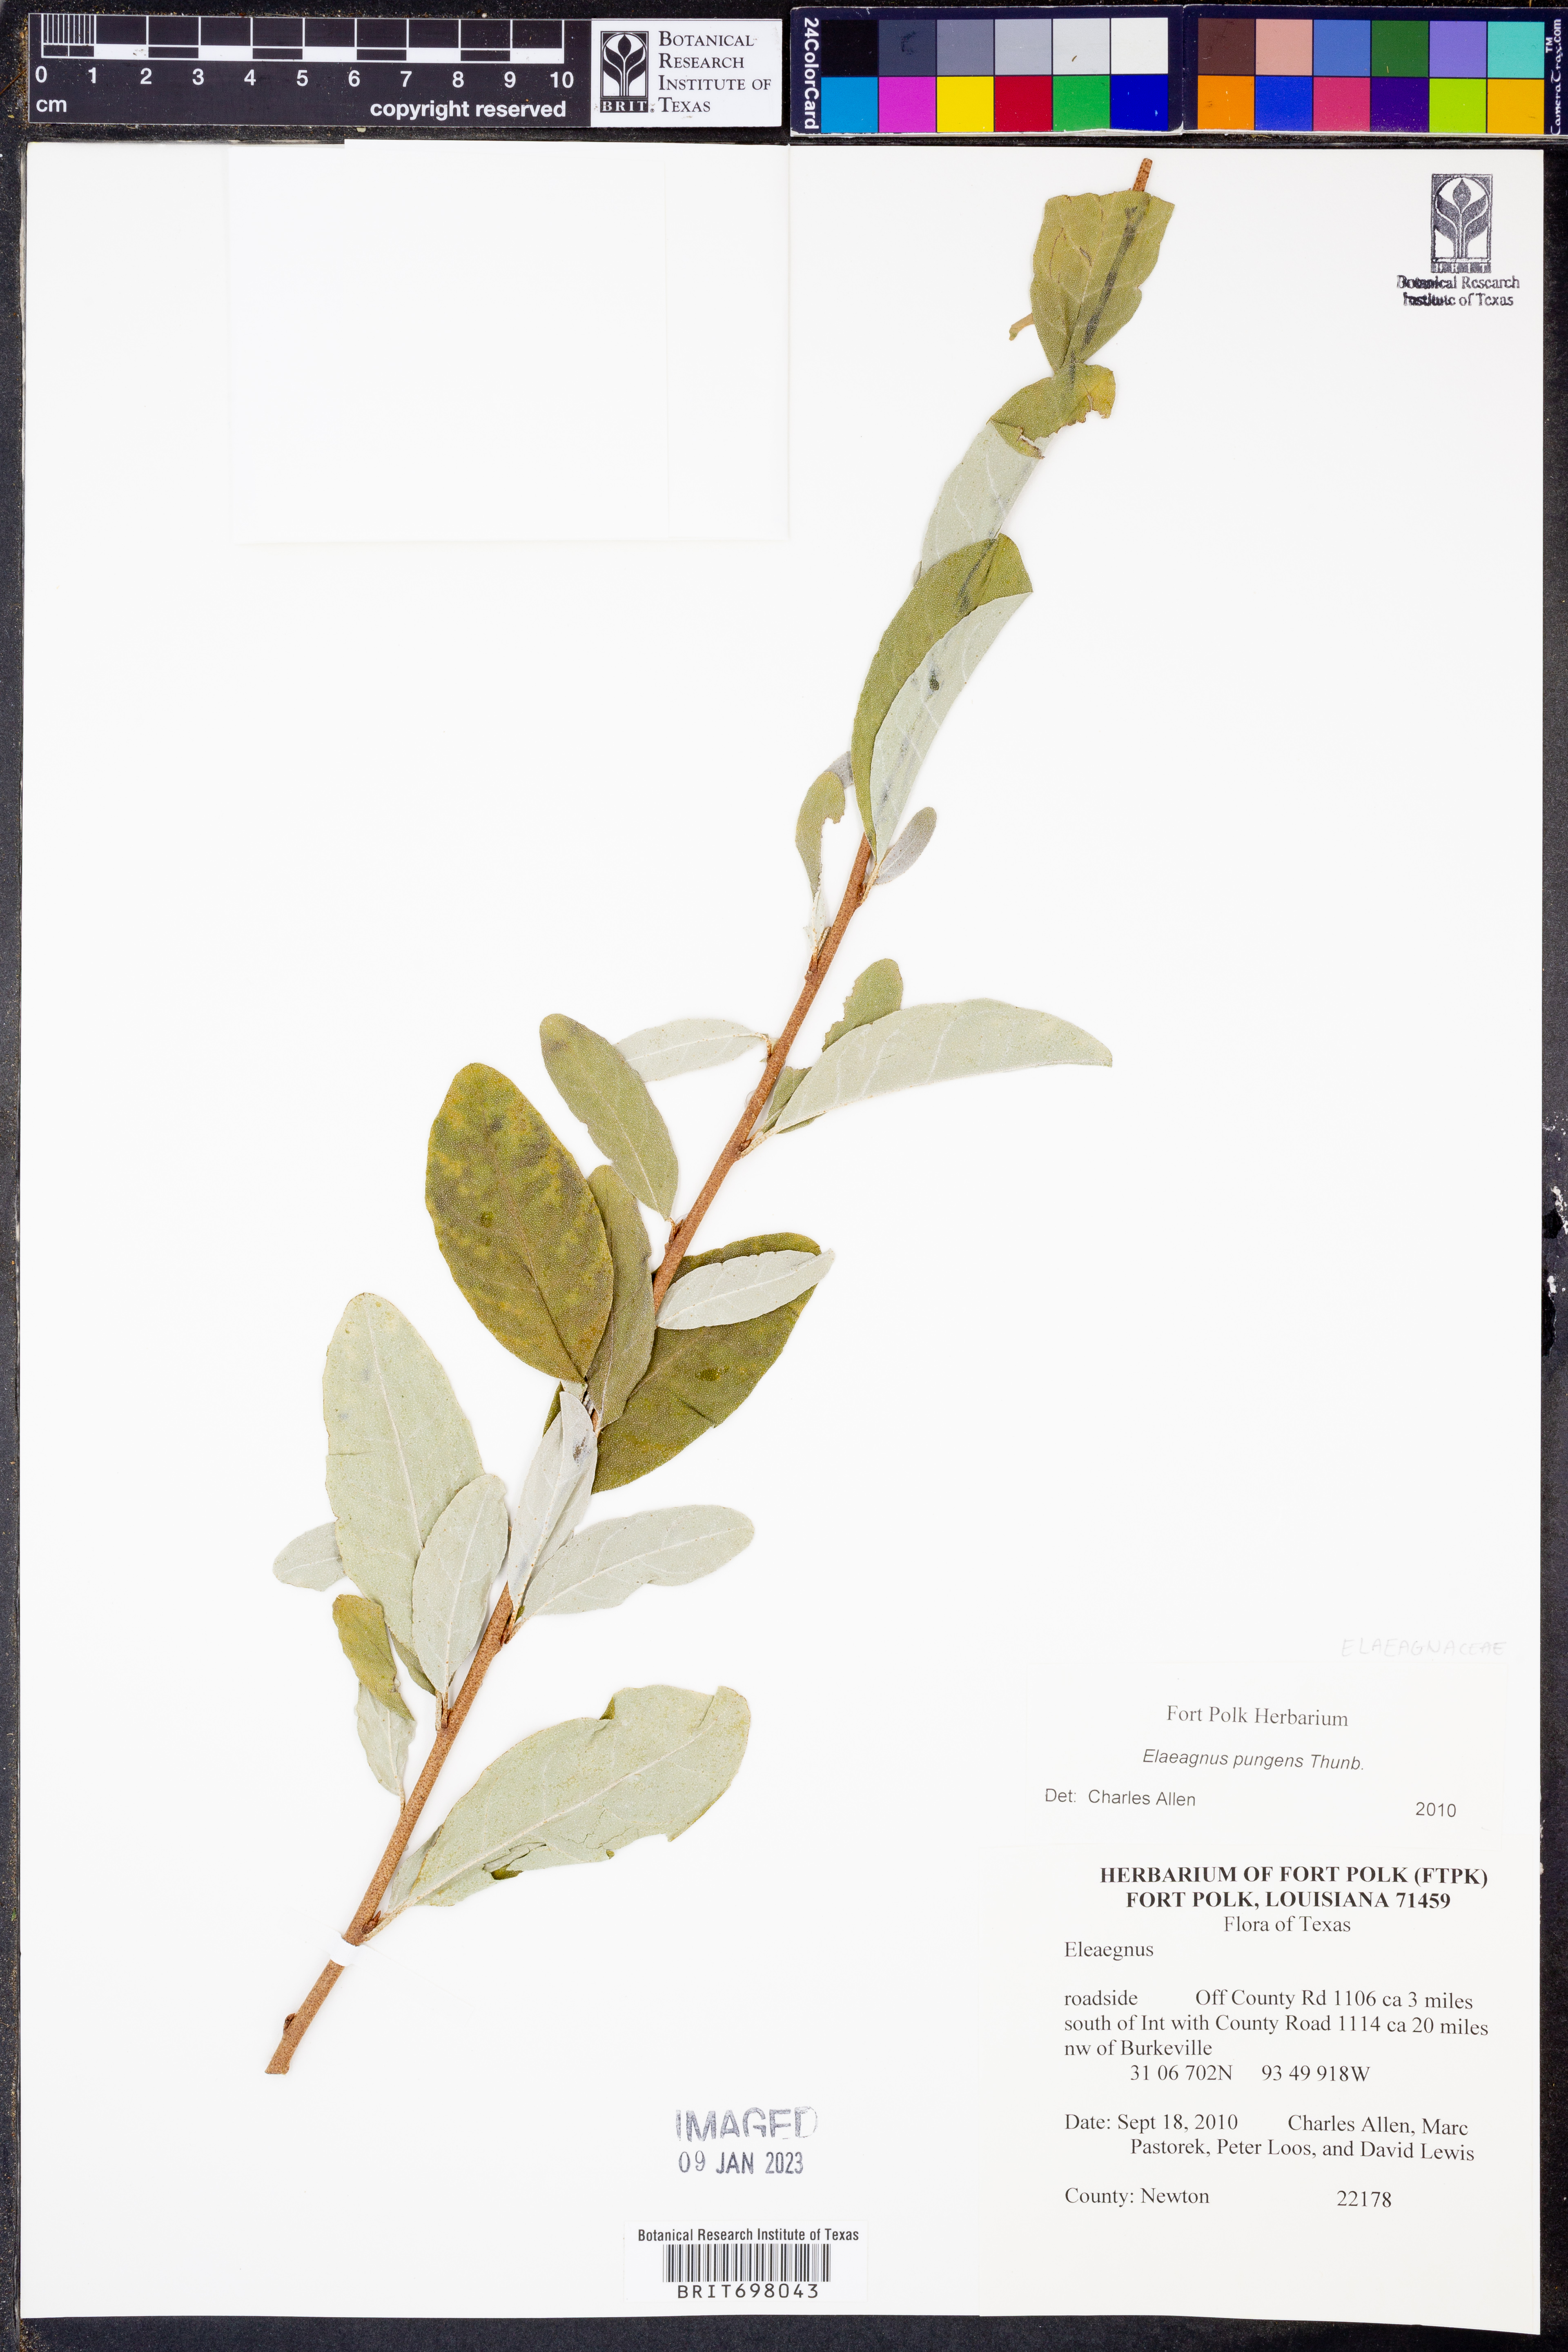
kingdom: Plantae
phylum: Tracheophyta
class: Magnoliopsida
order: Rosales
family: Elaeagnaceae
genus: Elaeagnus
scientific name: Elaeagnus pungens
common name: Spiny oleaster
